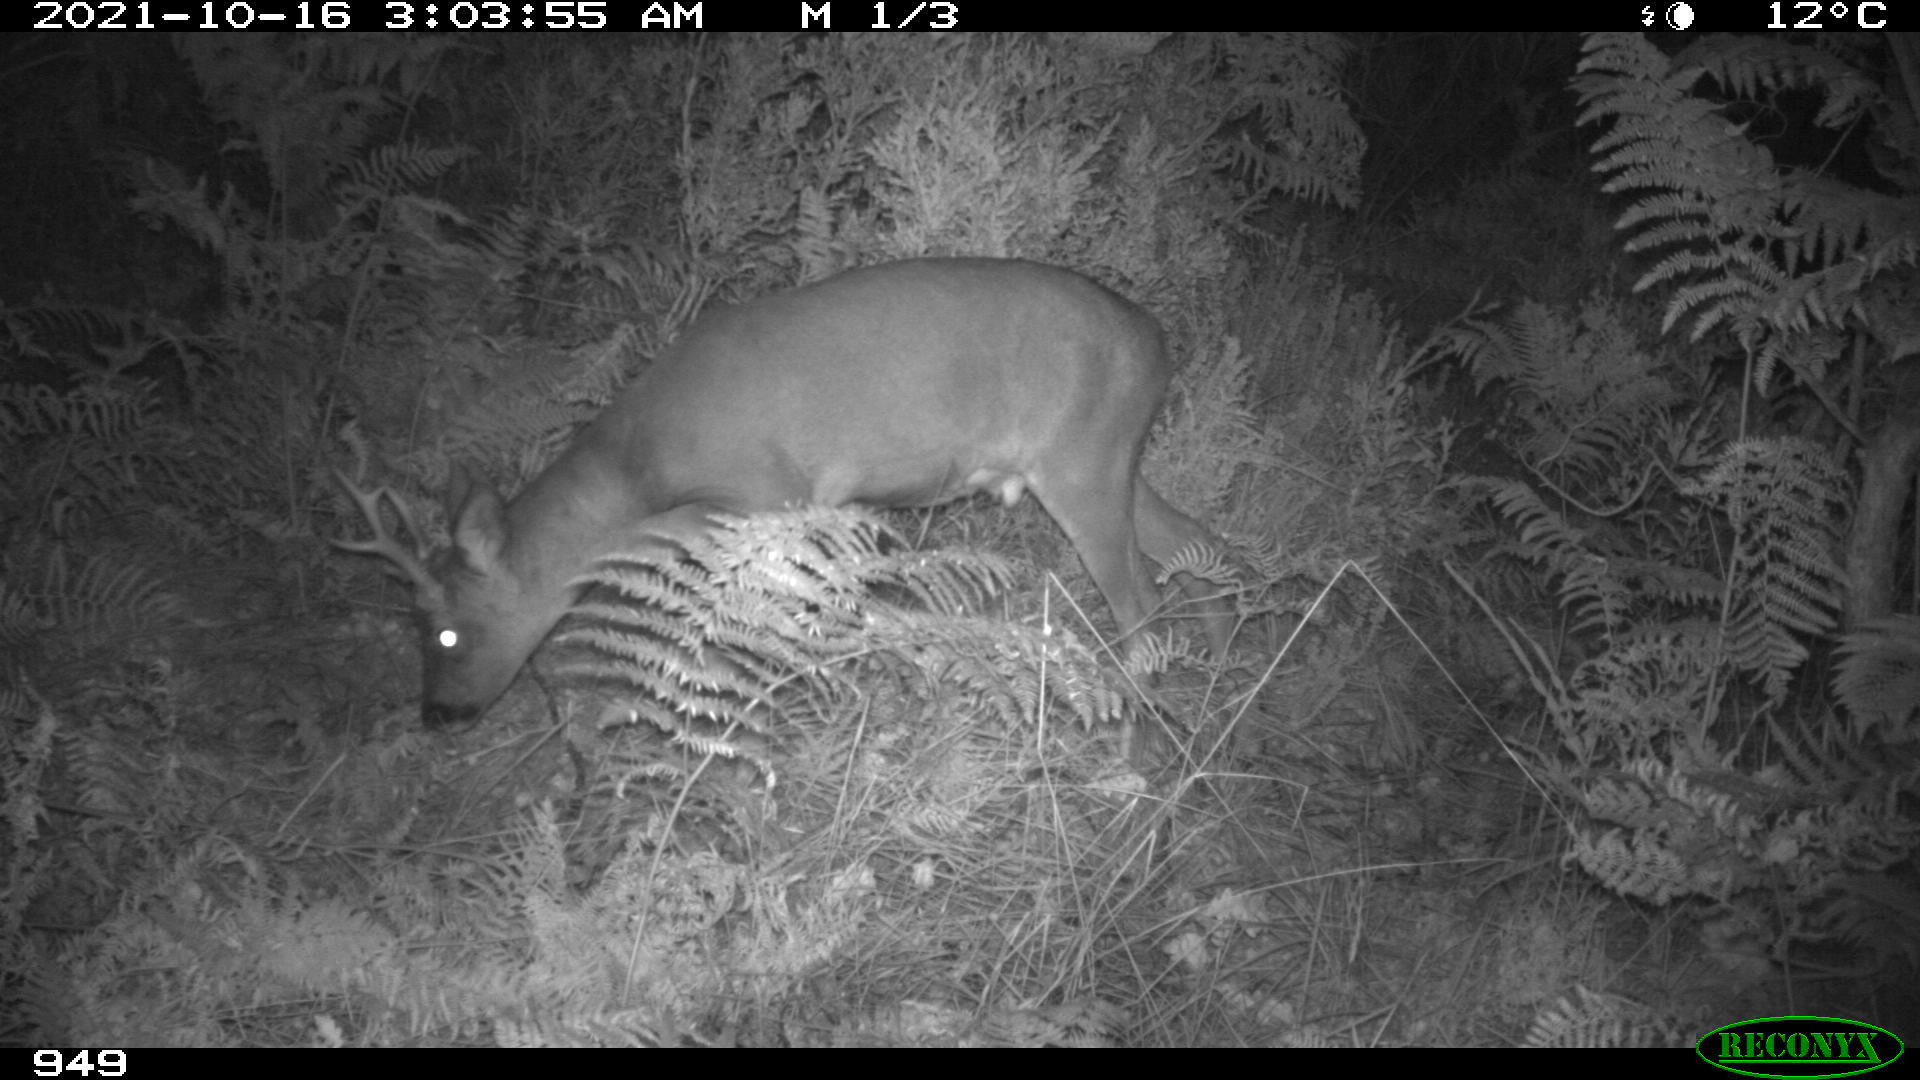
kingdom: Animalia
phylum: Chordata
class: Mammalia
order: Artiodactyla
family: Cervidae
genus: Capreolus
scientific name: Capreolus capreolus
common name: Western roe deer
